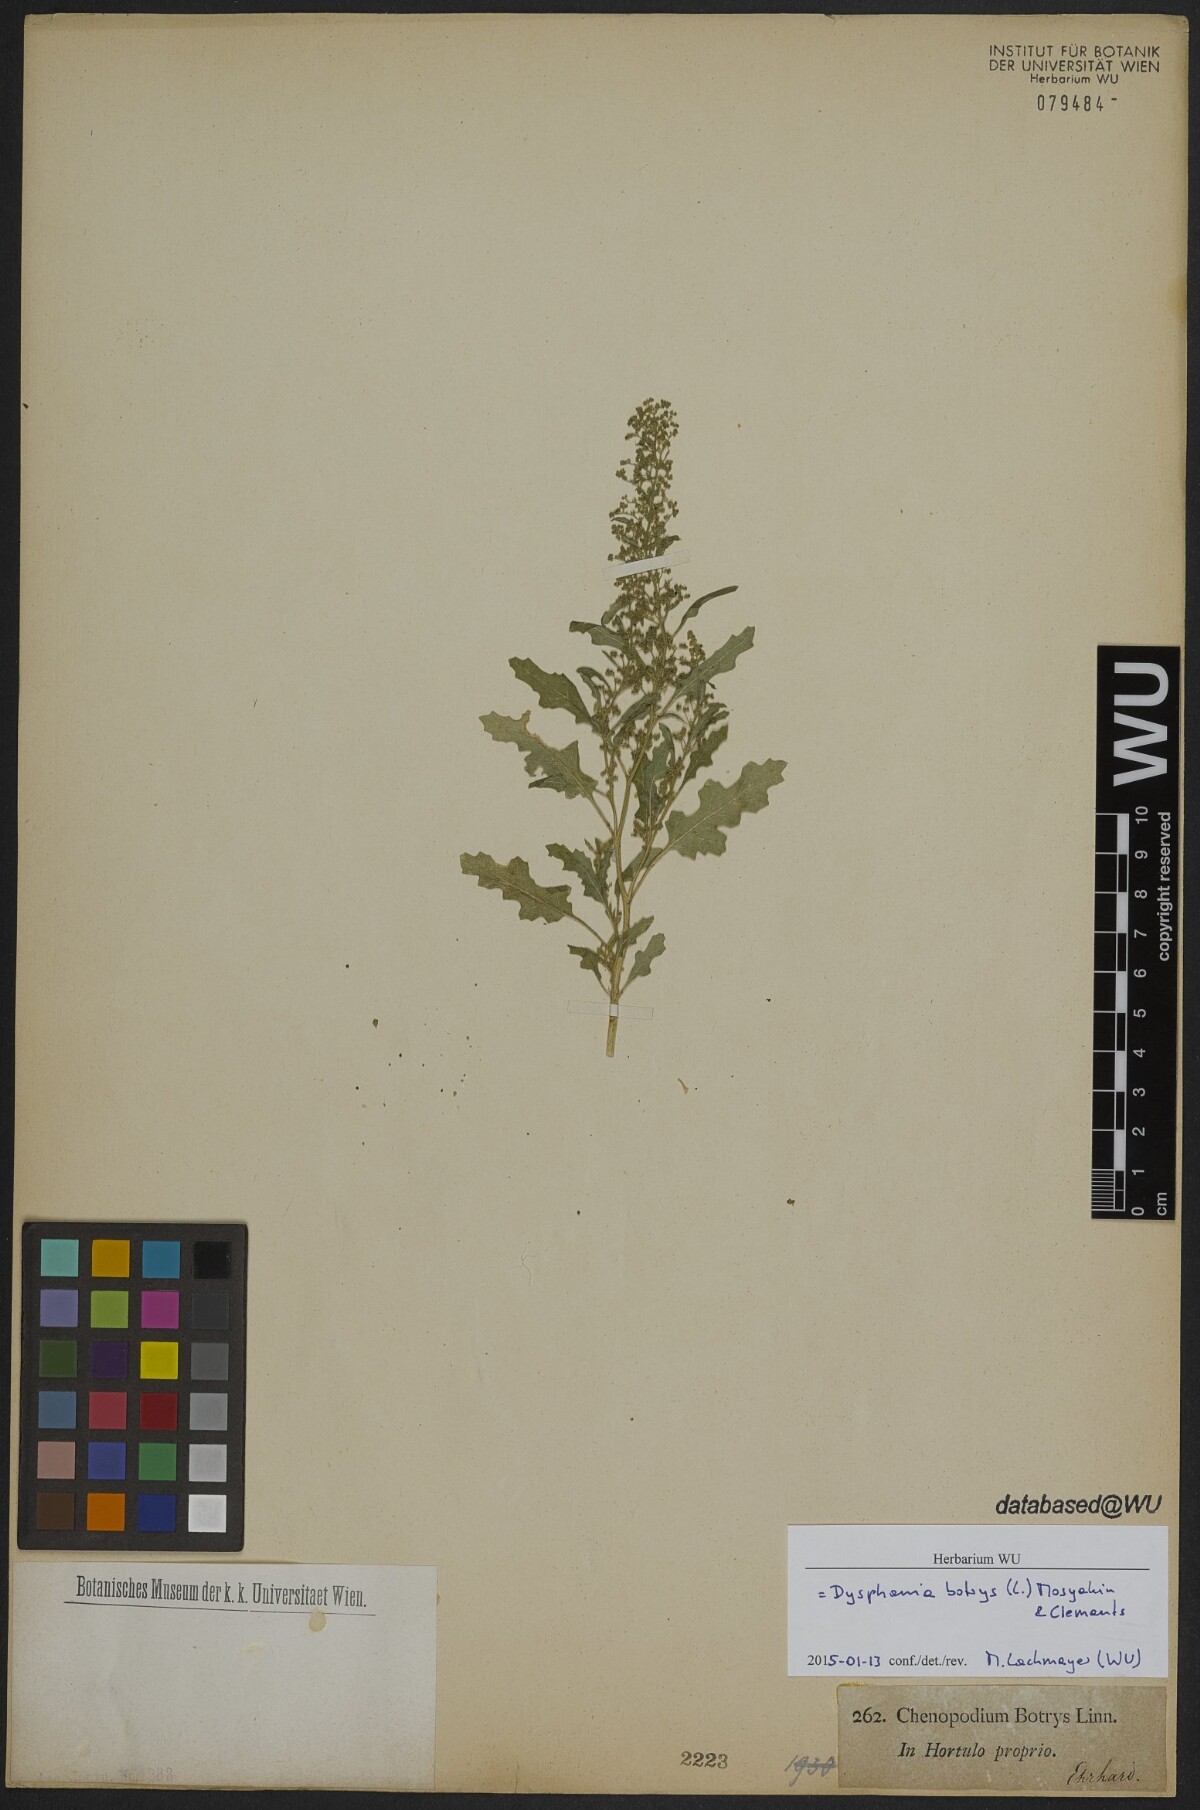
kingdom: Plantae
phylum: Tracheophyta
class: Magnoliopsida
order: Caryophyllales
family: Amaranthaceae
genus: Dysphania
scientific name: Dysphania botrys
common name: Feather-geranium
